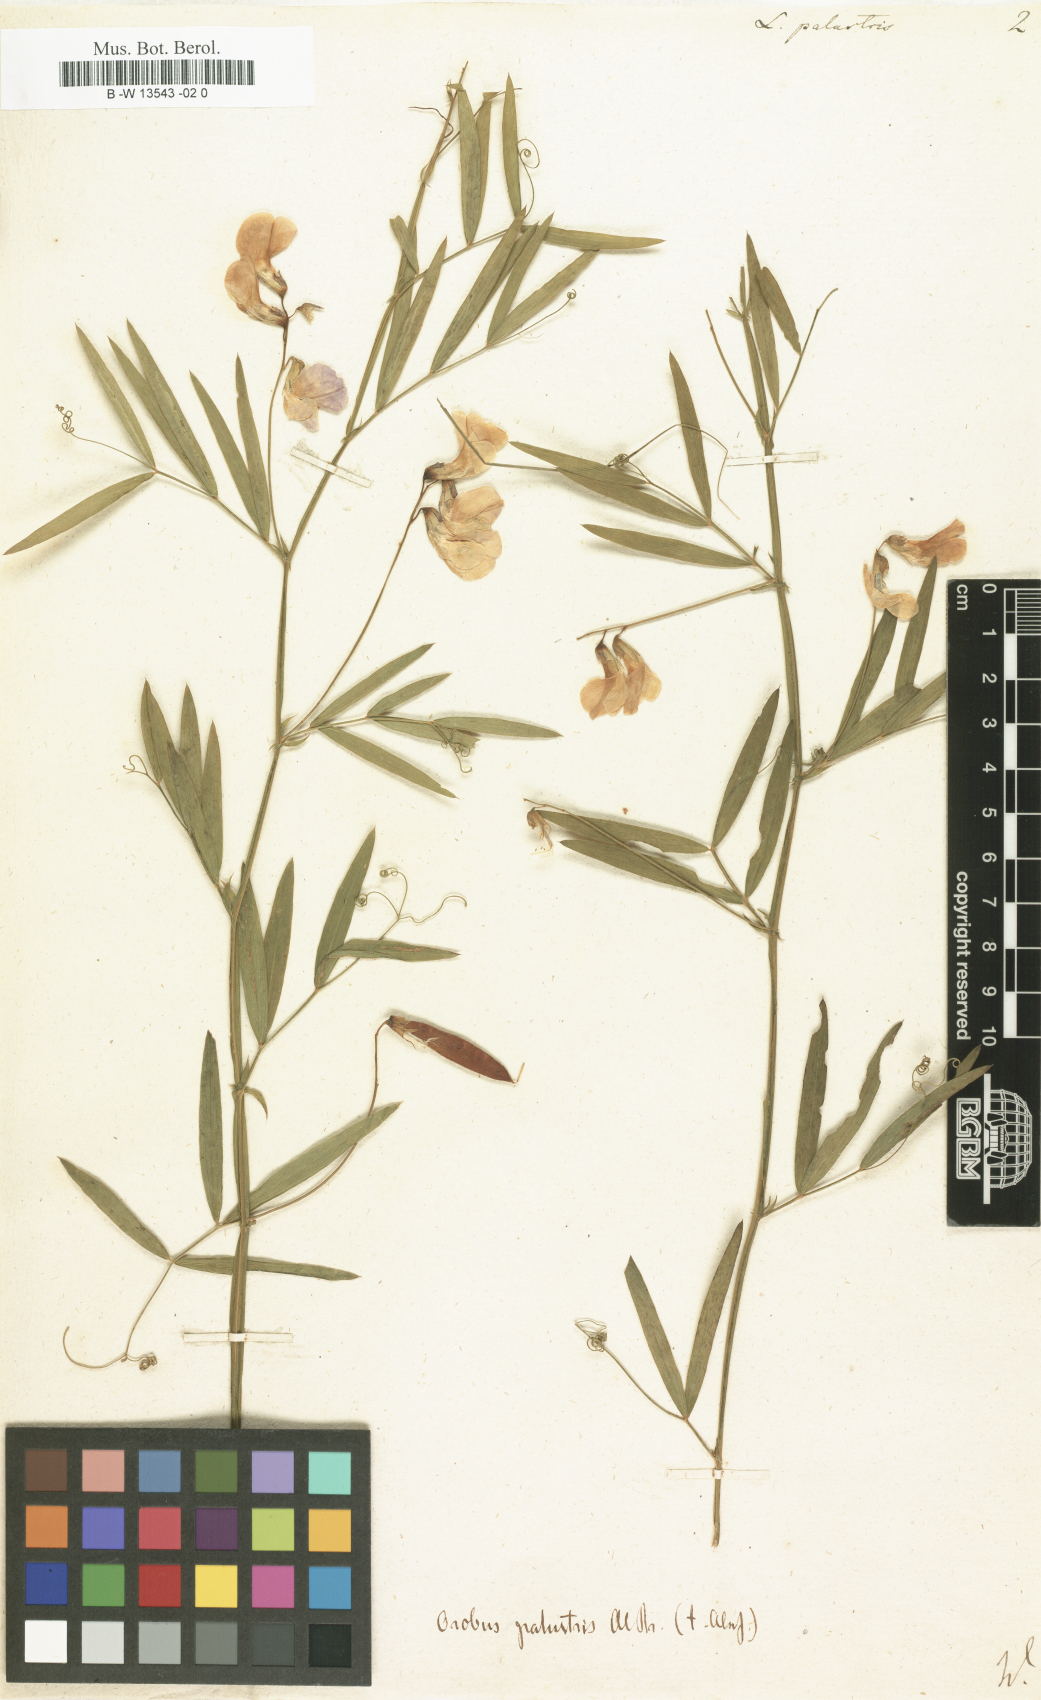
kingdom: Plantae
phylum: Tracheophyta
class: Magnoliopsida
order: Fabales
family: Fabaceae
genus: Lathyrus
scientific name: Lathyrus palustris
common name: Marsh pea
